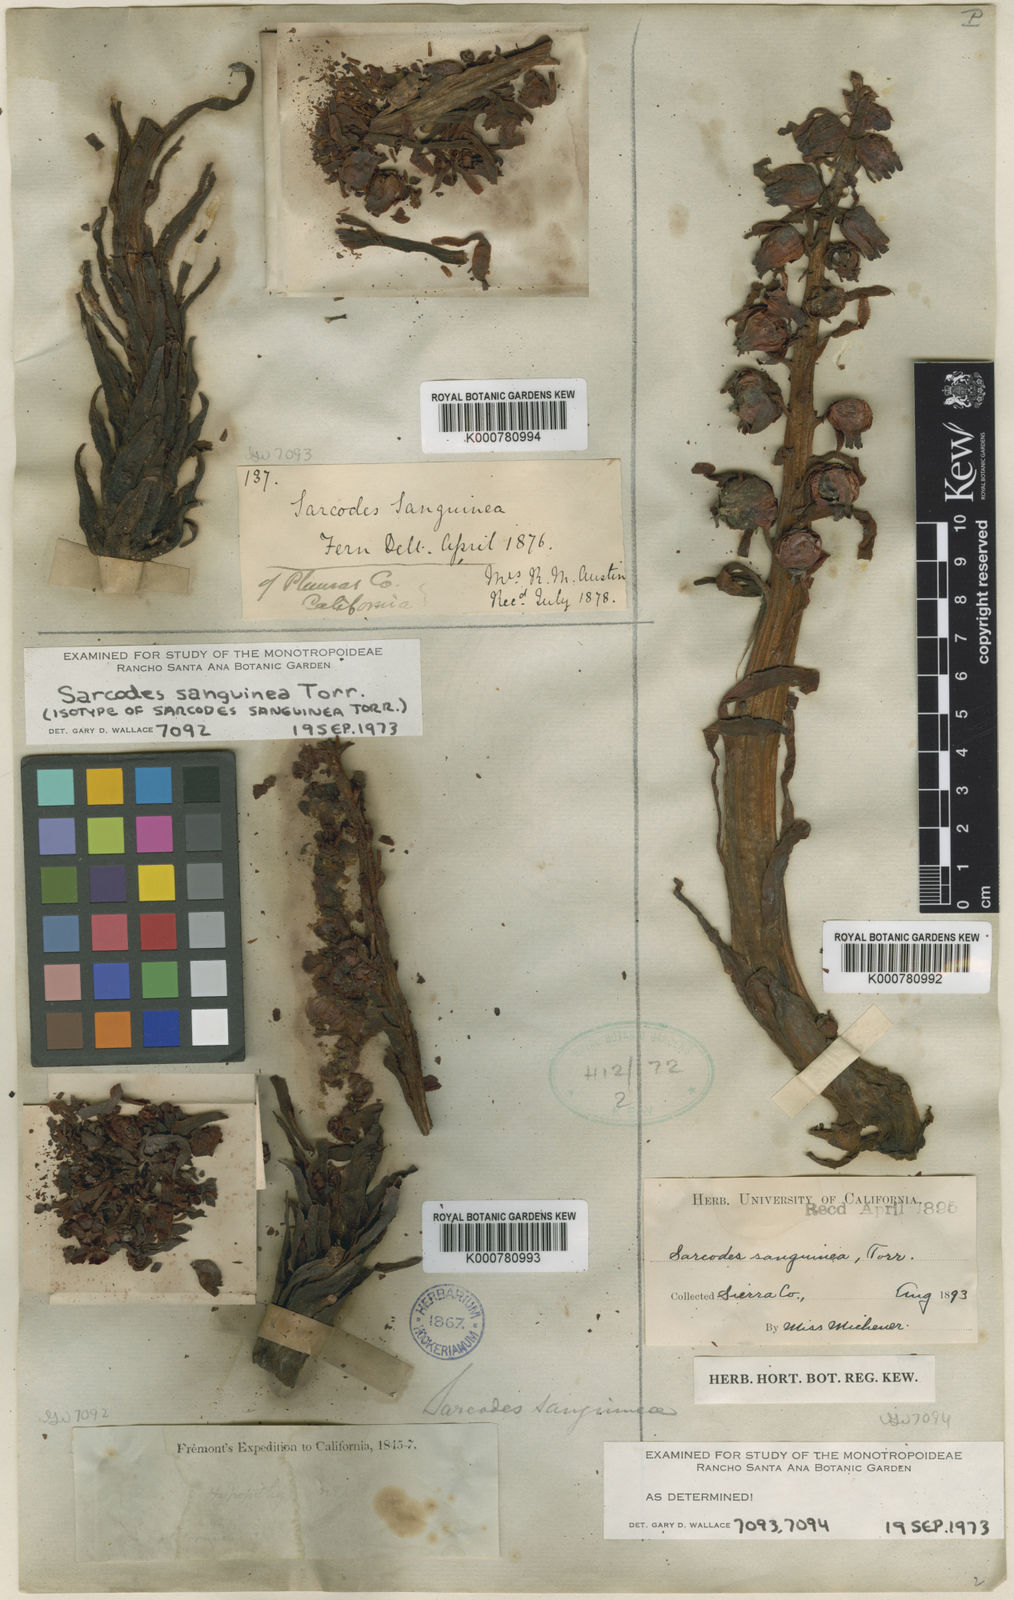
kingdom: Plantae
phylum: Tracheophyta
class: Magnoliopsida
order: Ericales
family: Ericaceae
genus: Sarcodes
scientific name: Sarcodes sanguinea
